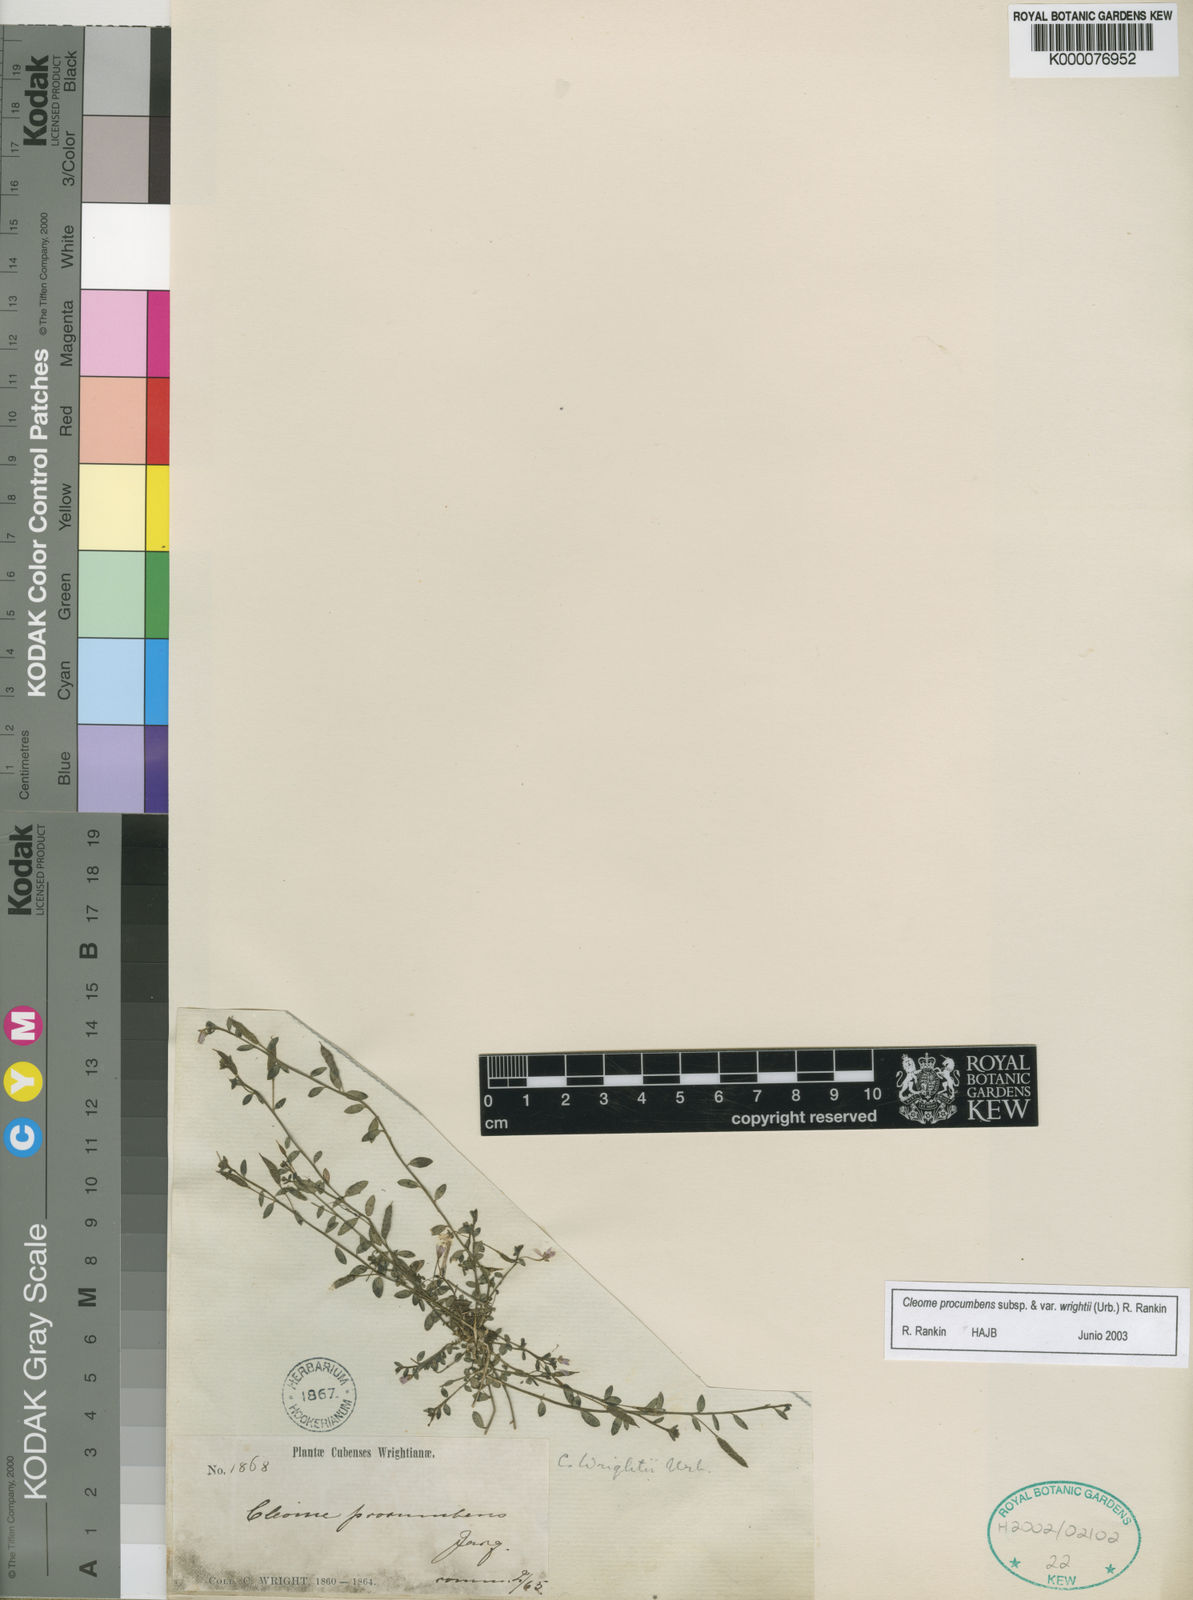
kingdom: Plantae
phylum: Tracheophyta
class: Magnoliopsida
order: Brassicales
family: Cleomaceae
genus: Physostemon
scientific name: Physostemon procumbens
